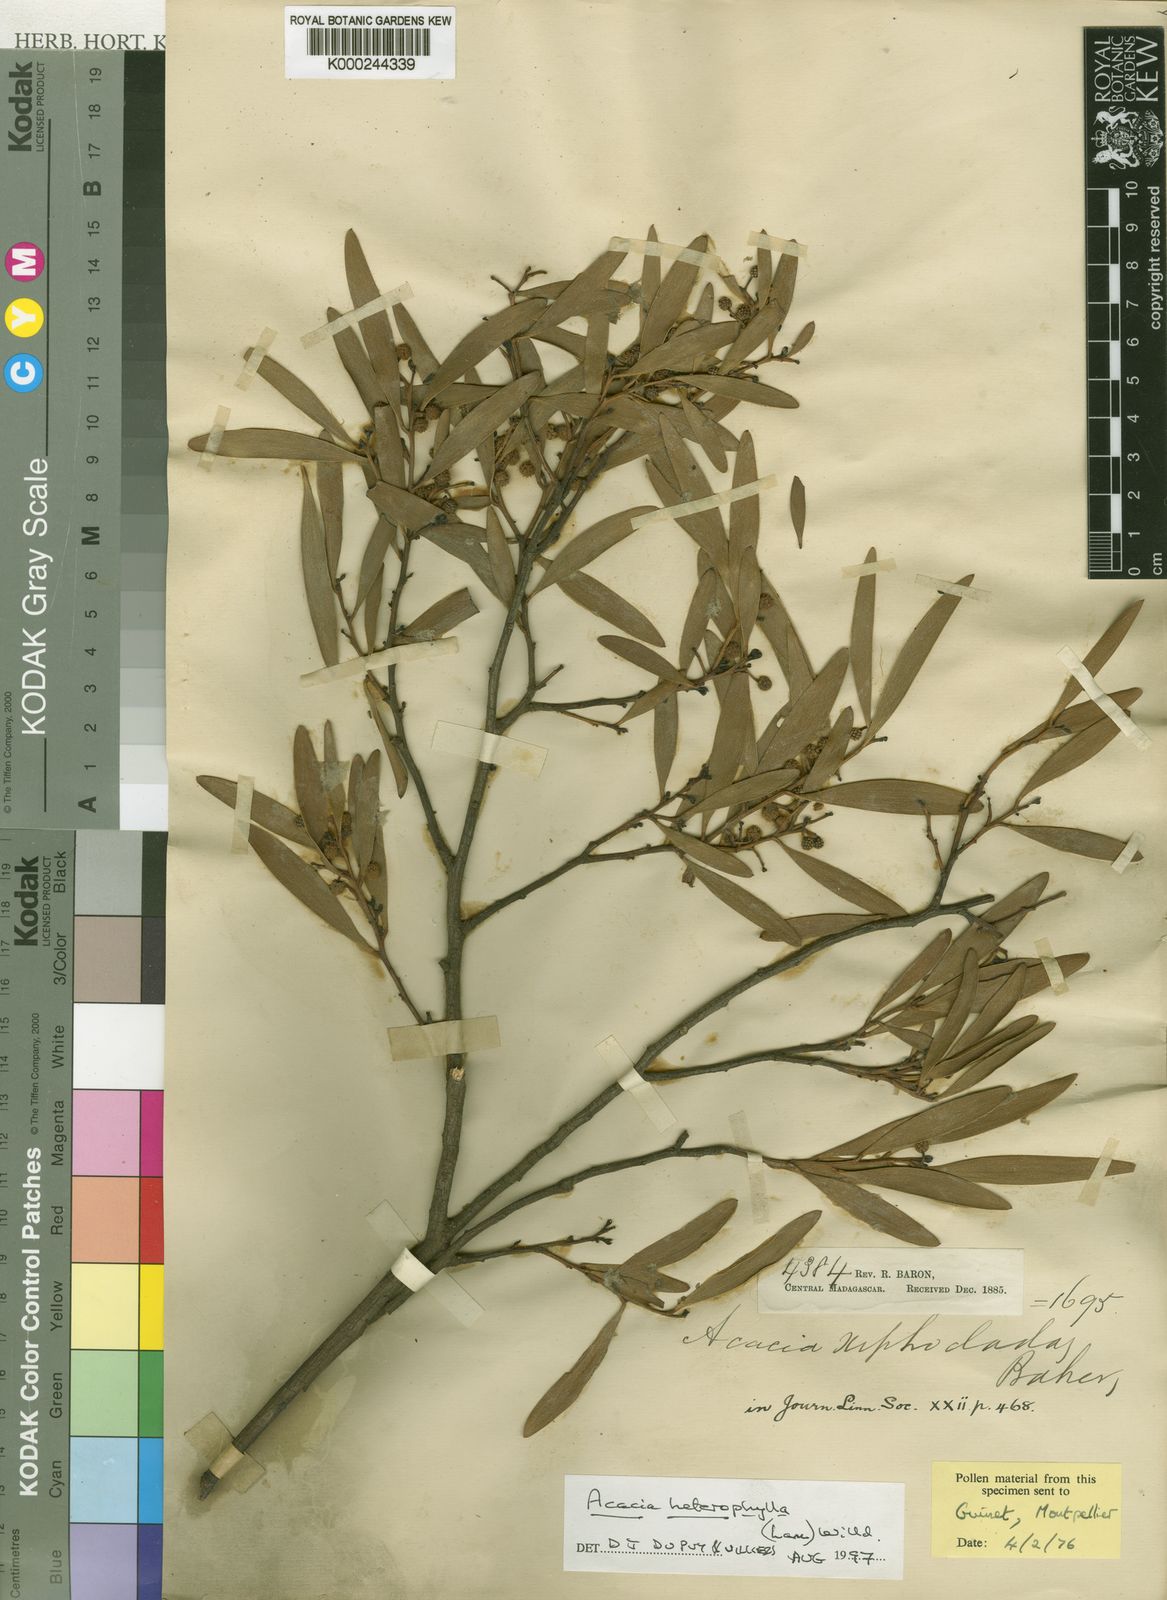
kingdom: Plantae
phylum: Tracheophyta
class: Magnoliopsida
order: Fabales
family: Fabaceae
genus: Acacia
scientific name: Acacia heterophylla
